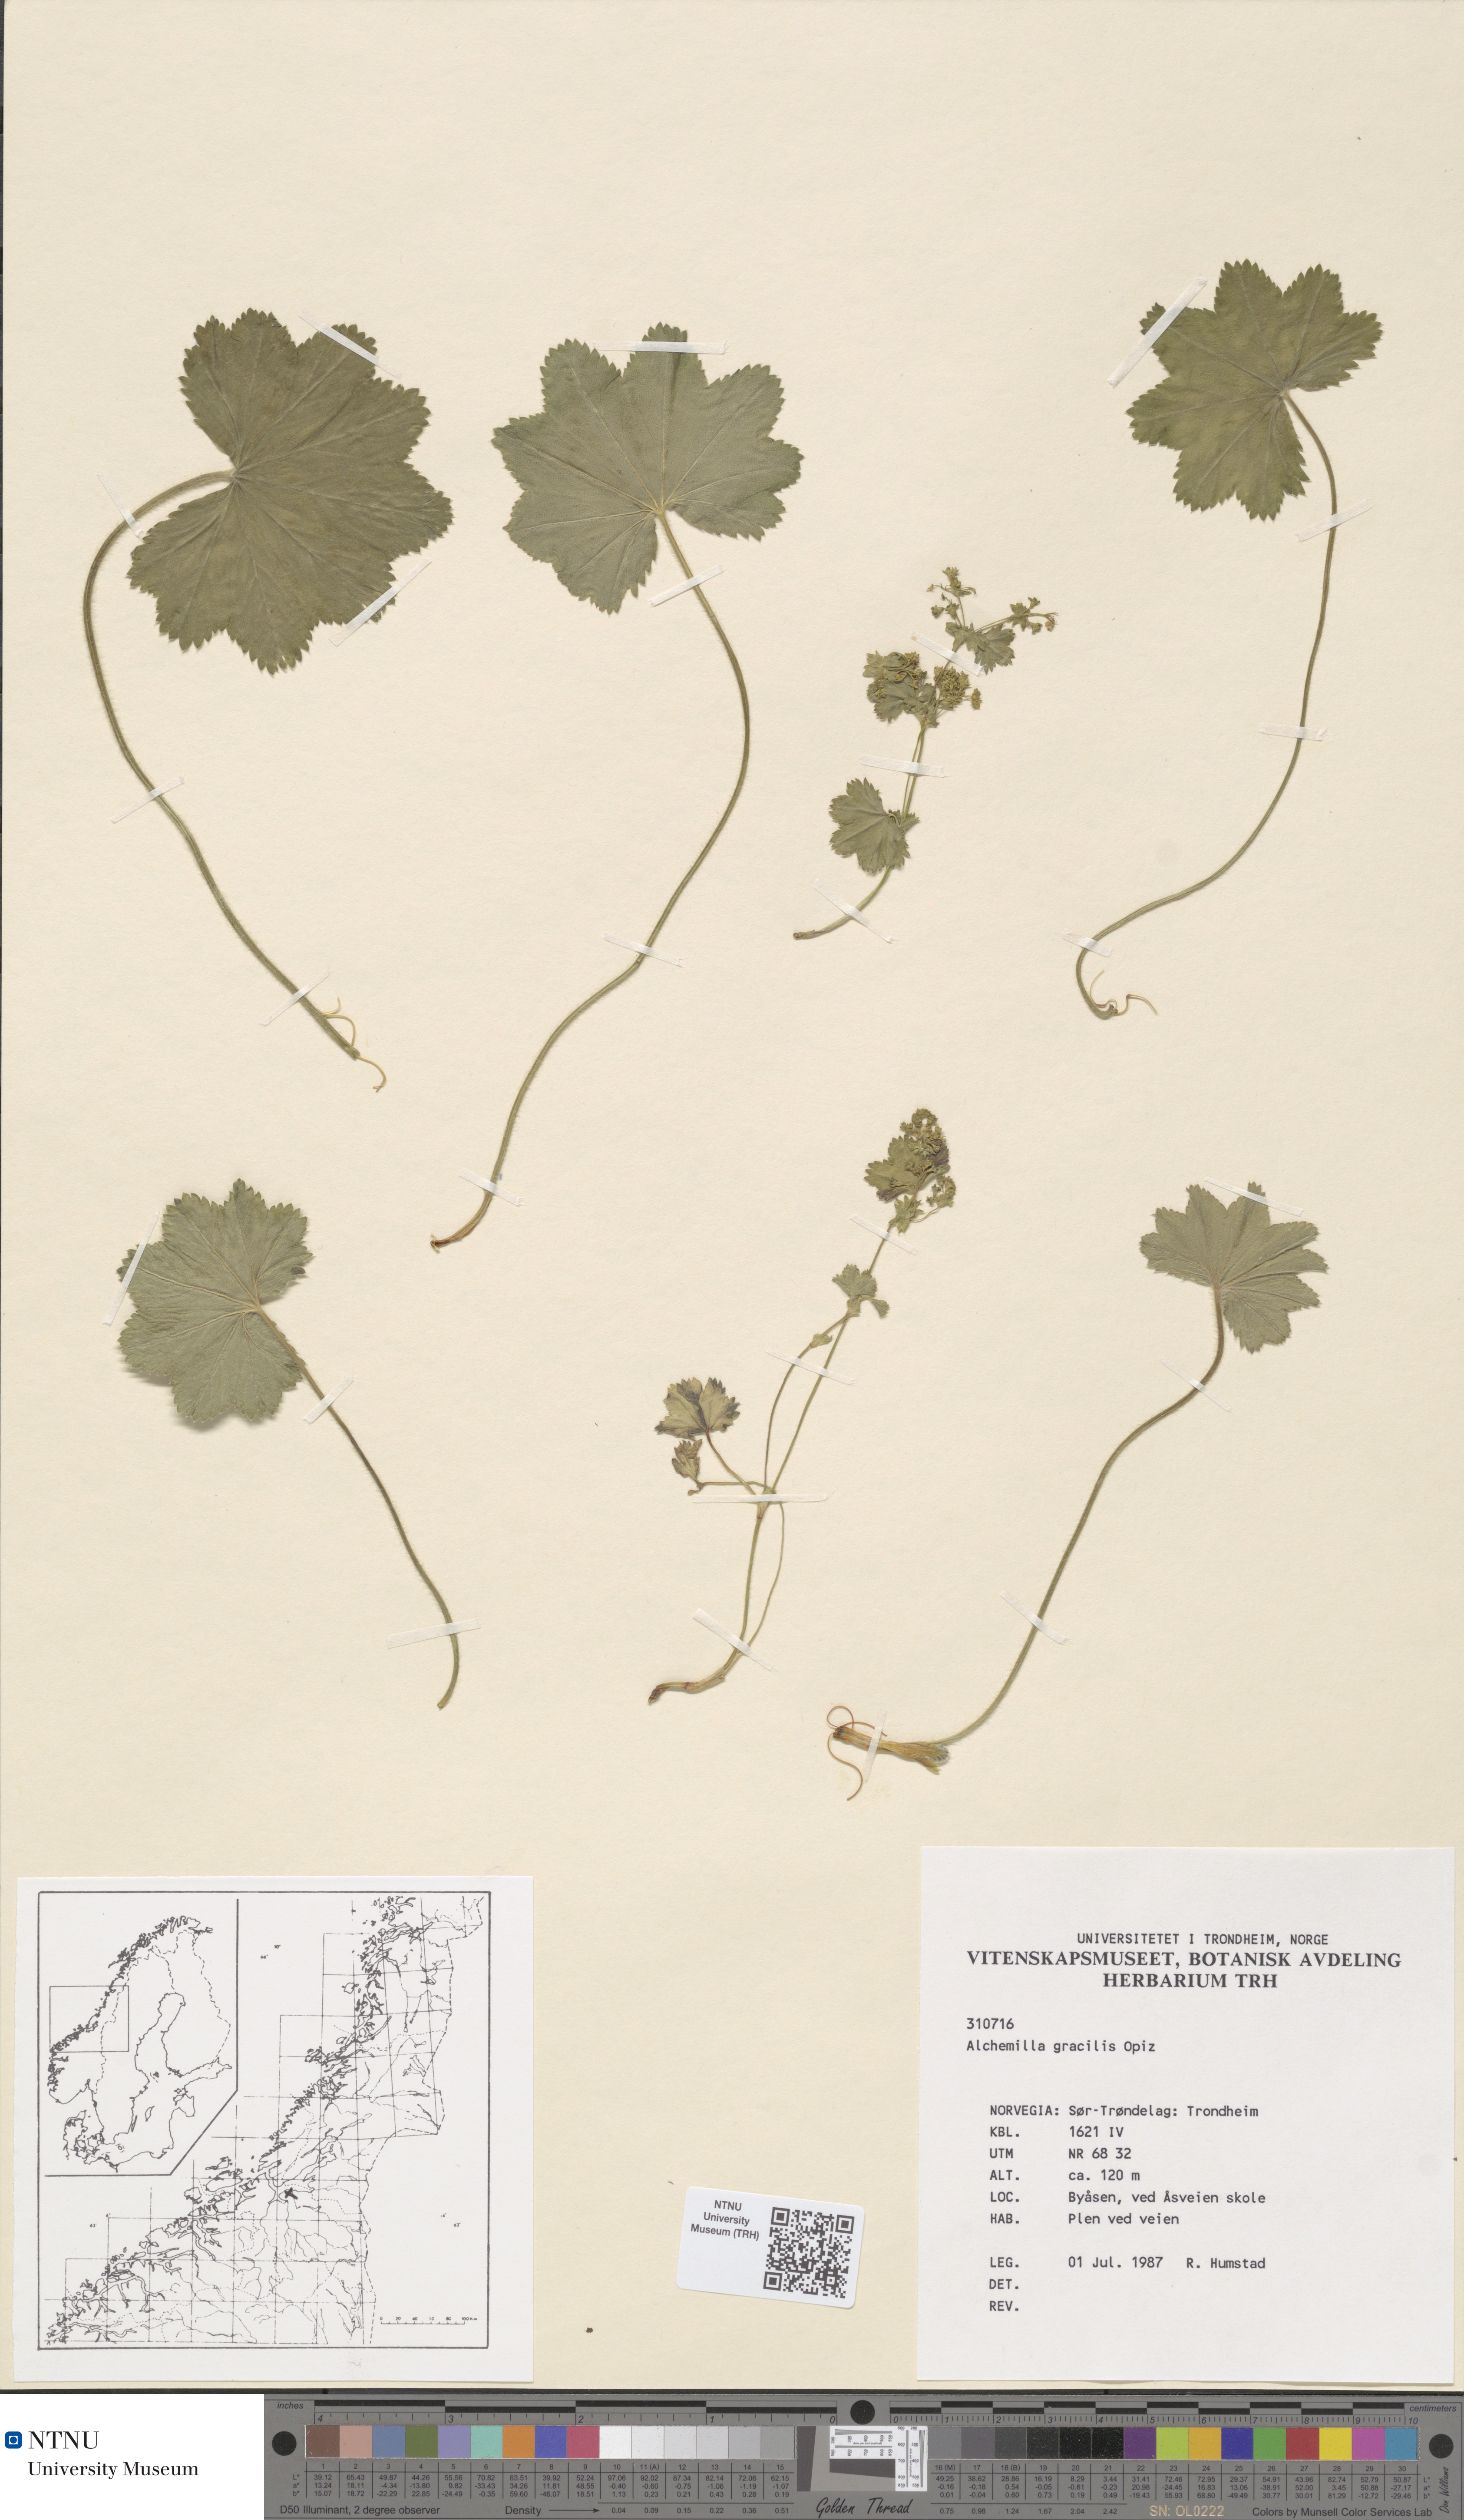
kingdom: Plantae
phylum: Tracheophyta
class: Magnoliopsida
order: Rosales
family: Rosaceae
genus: Alchemilla
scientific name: Alchemilla micans
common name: Gleaming lady's mantle
